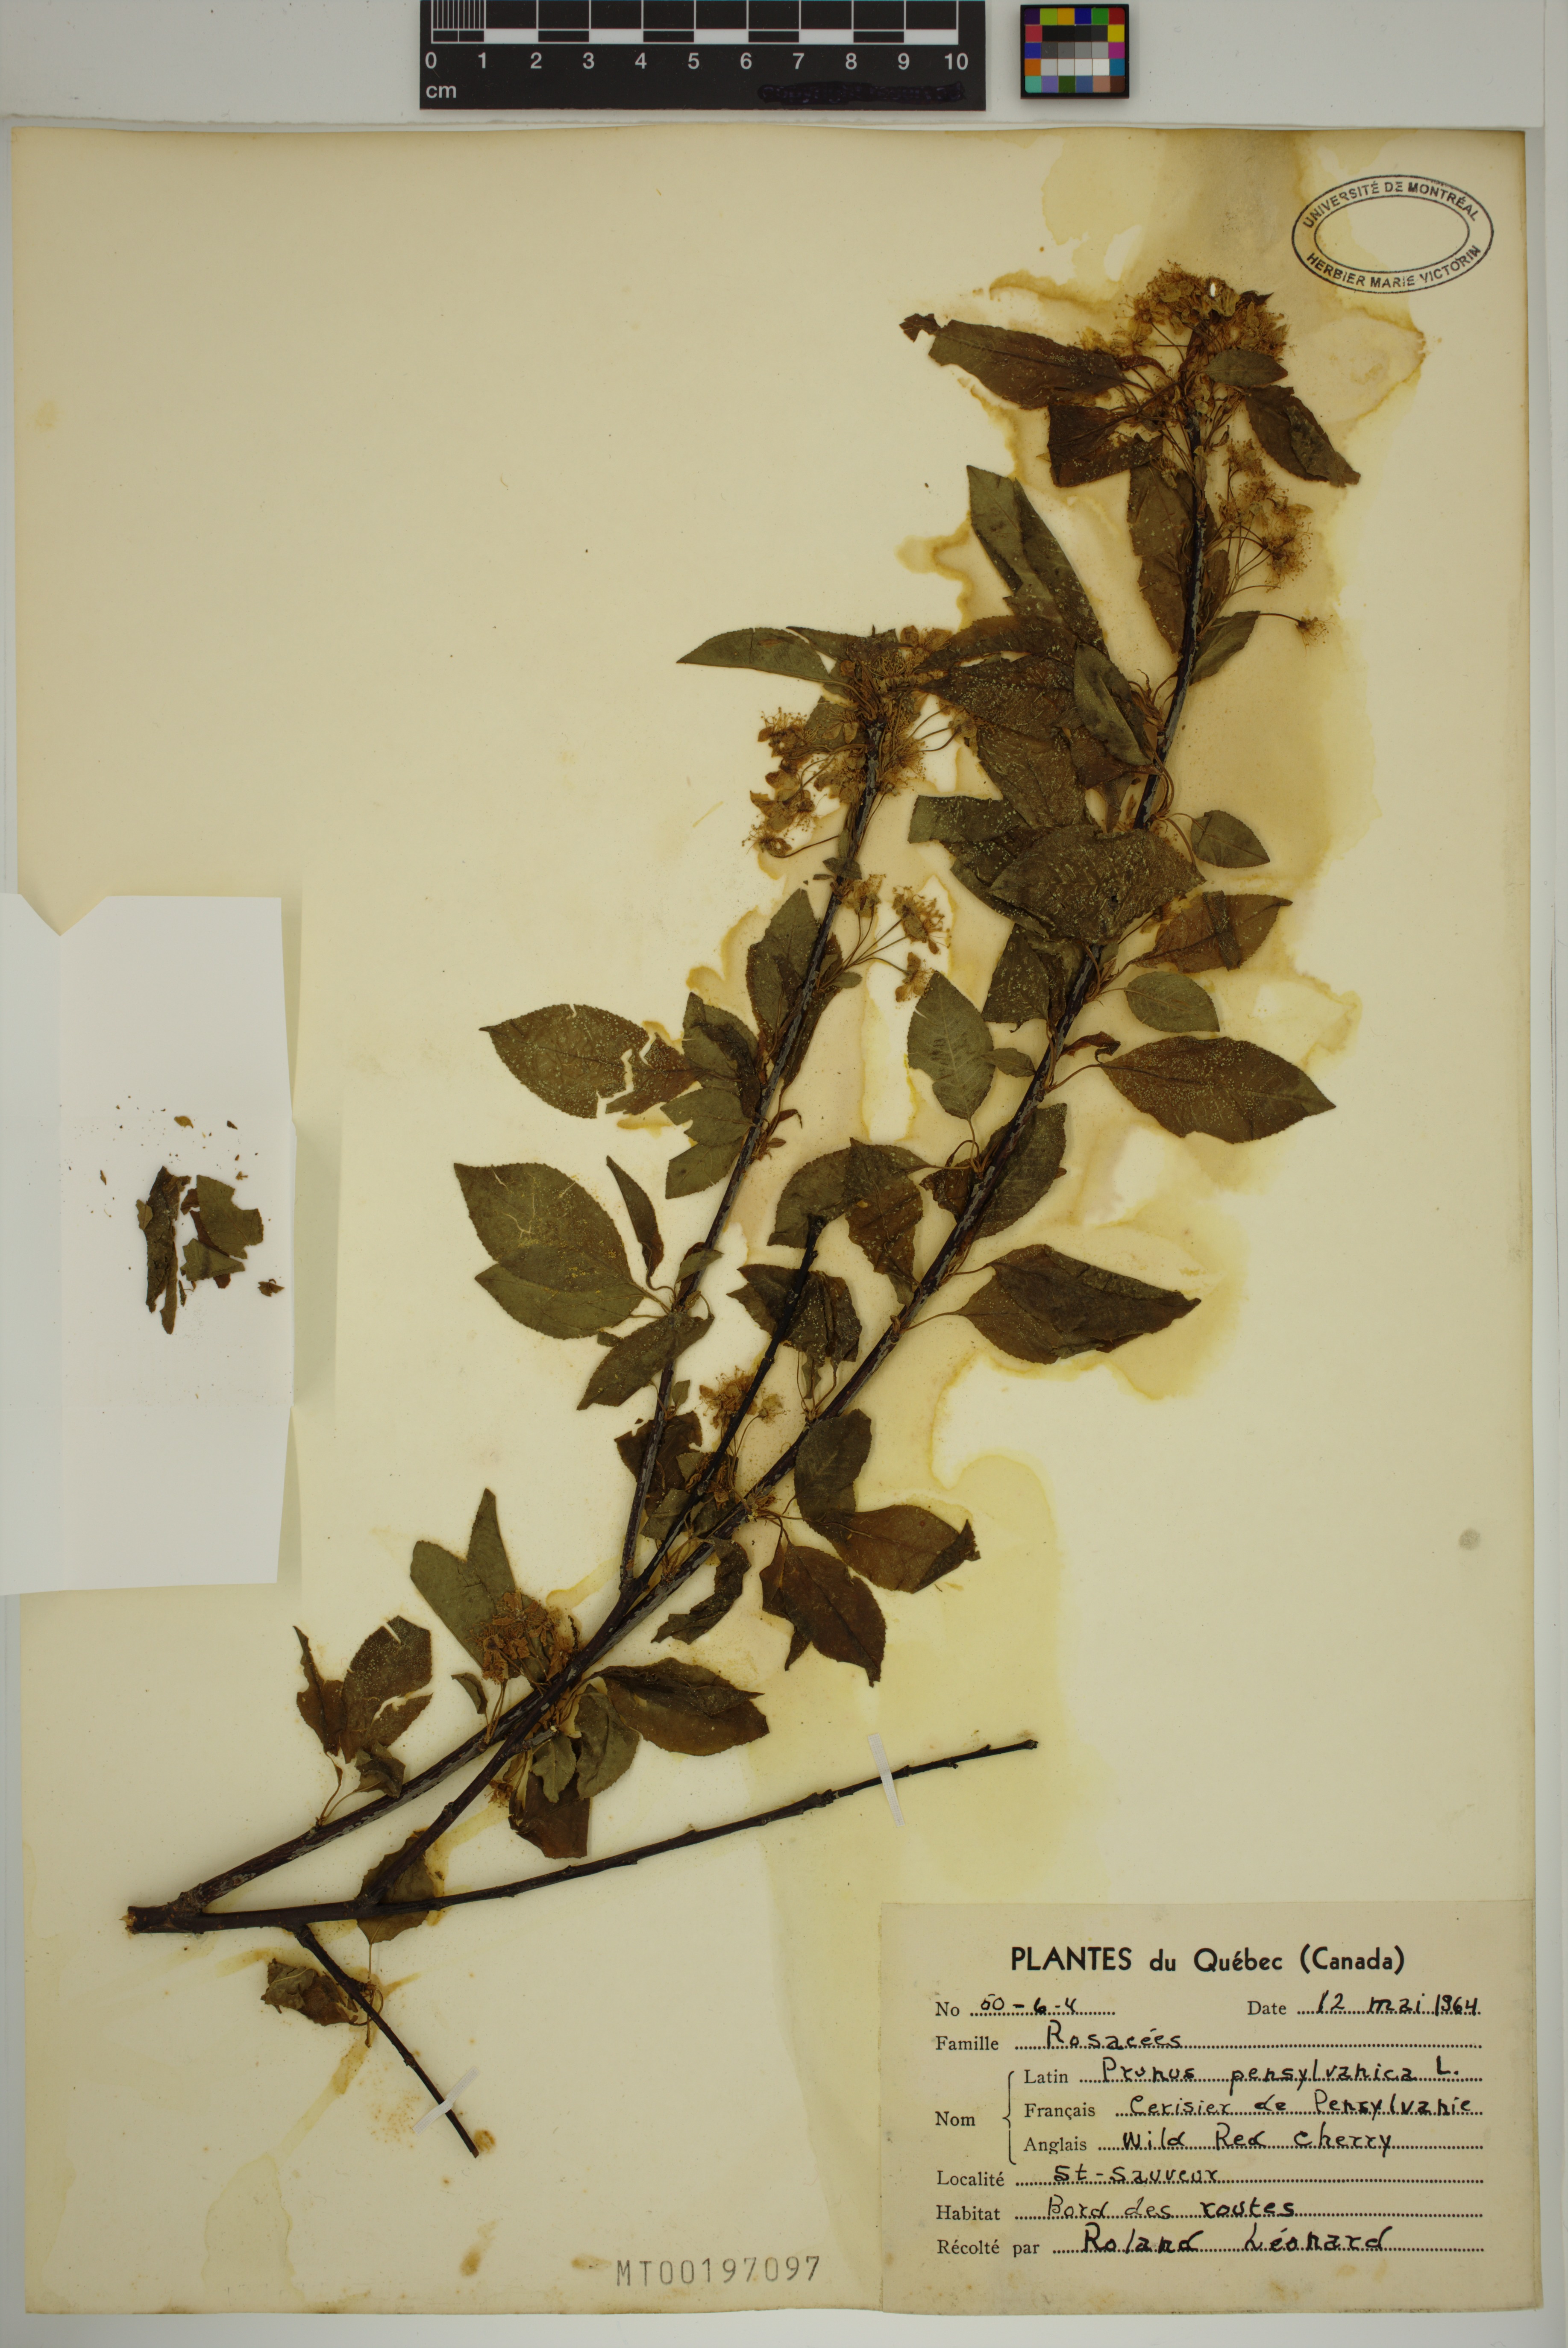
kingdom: Plantae
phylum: Tracheophyta
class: Magnoliopsida
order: Rosales
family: Rosaceae
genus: Prunus
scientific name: Prunus pensylvanica
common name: Pin cherry
